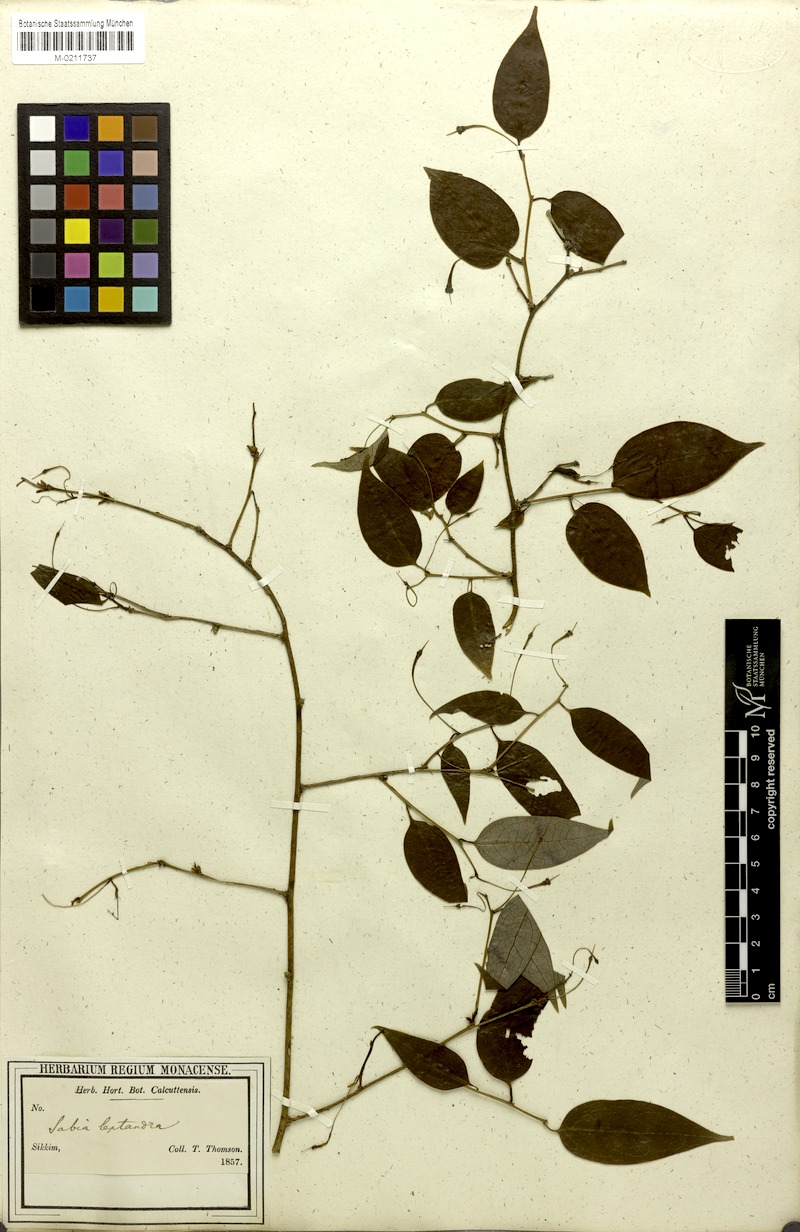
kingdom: Plantae
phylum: Tracheophyta
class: Magnoliopsida
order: Proteales
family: Sabiaceae
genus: Sabia
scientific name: Sabia
